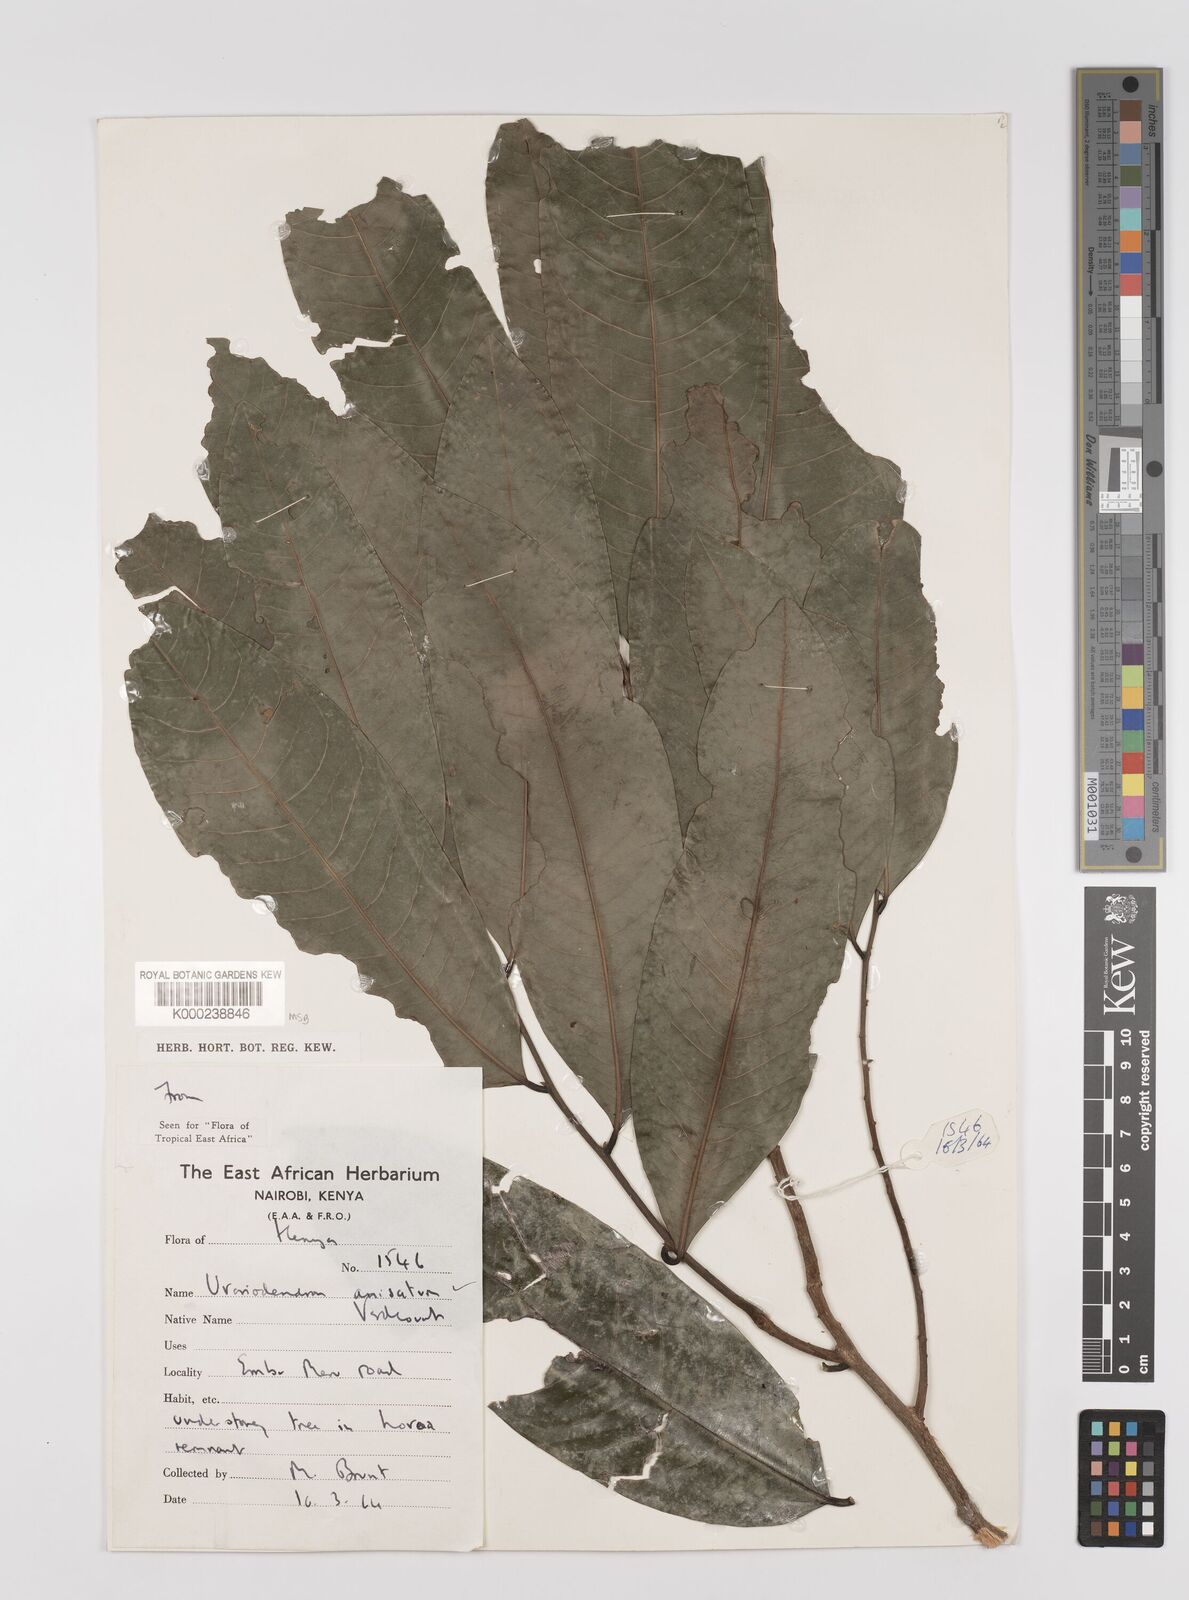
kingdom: Plantae
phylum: Tracheophyta
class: Magnoliopsida
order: Magnoliales
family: Annonaceae
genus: Uvariodendron
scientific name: Uvariodendron anisatum
